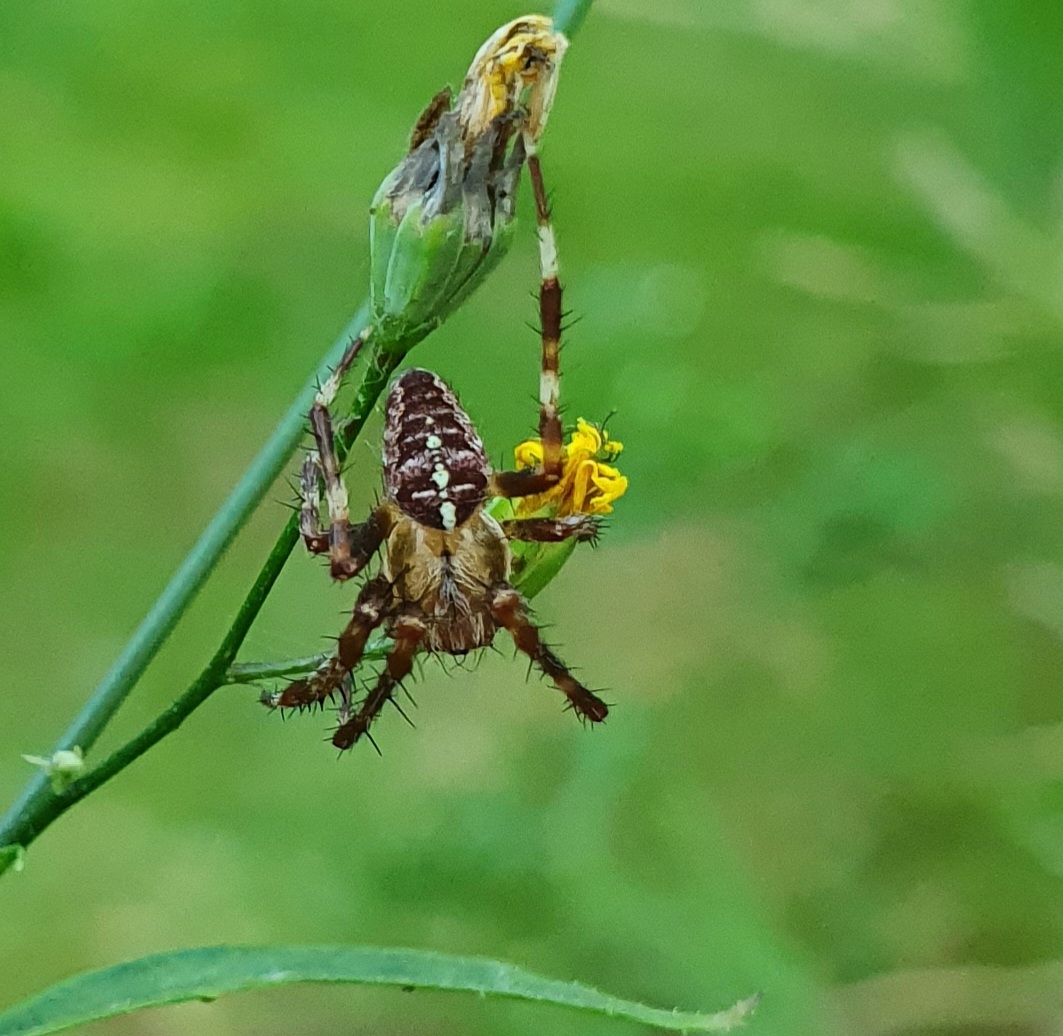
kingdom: Animalia
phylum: Arthropoda
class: Arachnida
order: Araneae
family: Araneidae
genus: Araneus
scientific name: Araneus diadematus
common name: Korsedderkop
